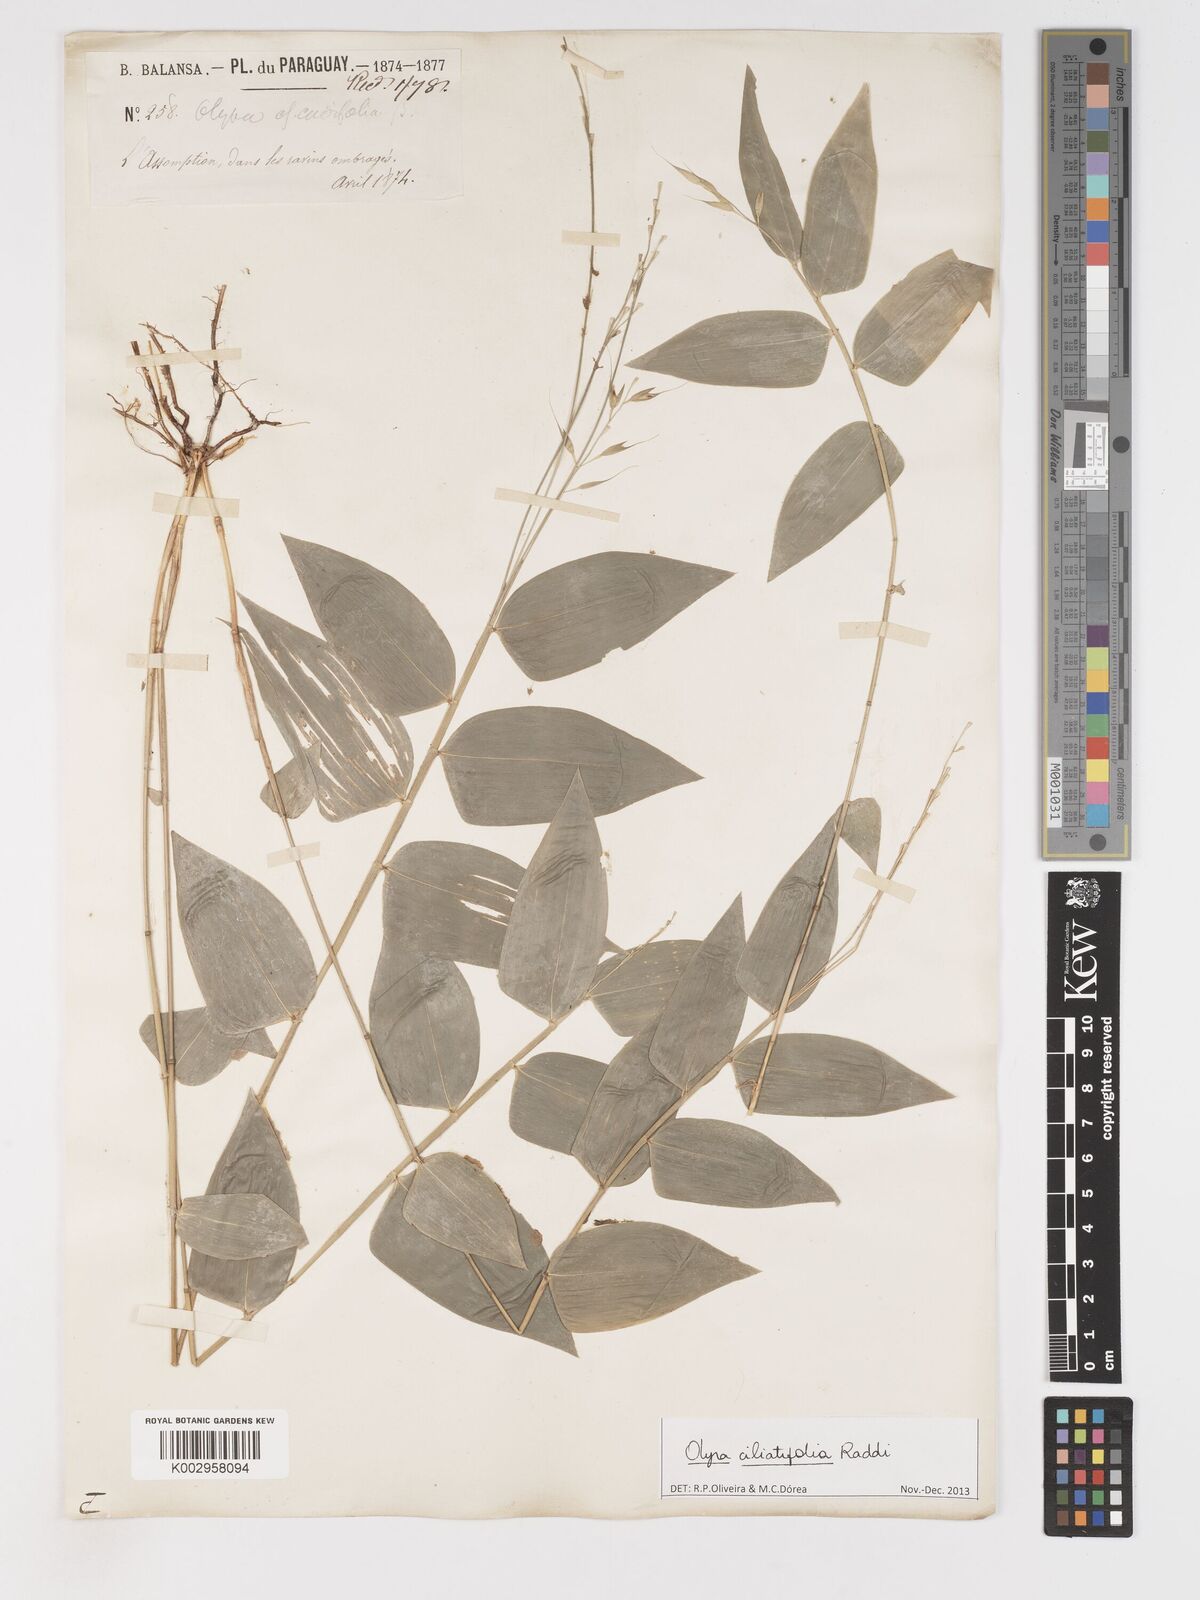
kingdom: Plantae
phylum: Tracheophyta
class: Liliopsida
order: Poales
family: Poaceae
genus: Olyra
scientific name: Olyra ciliatifolia
